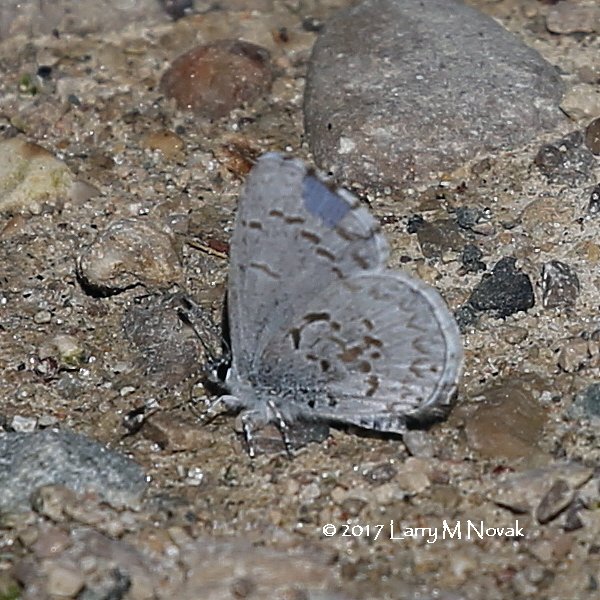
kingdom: Animalia
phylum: Arthropoda
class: Insecta
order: Lepidoptera
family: Lycaenidae
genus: Celastrina
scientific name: Celastrina lucia
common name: Northern Spring Azure
